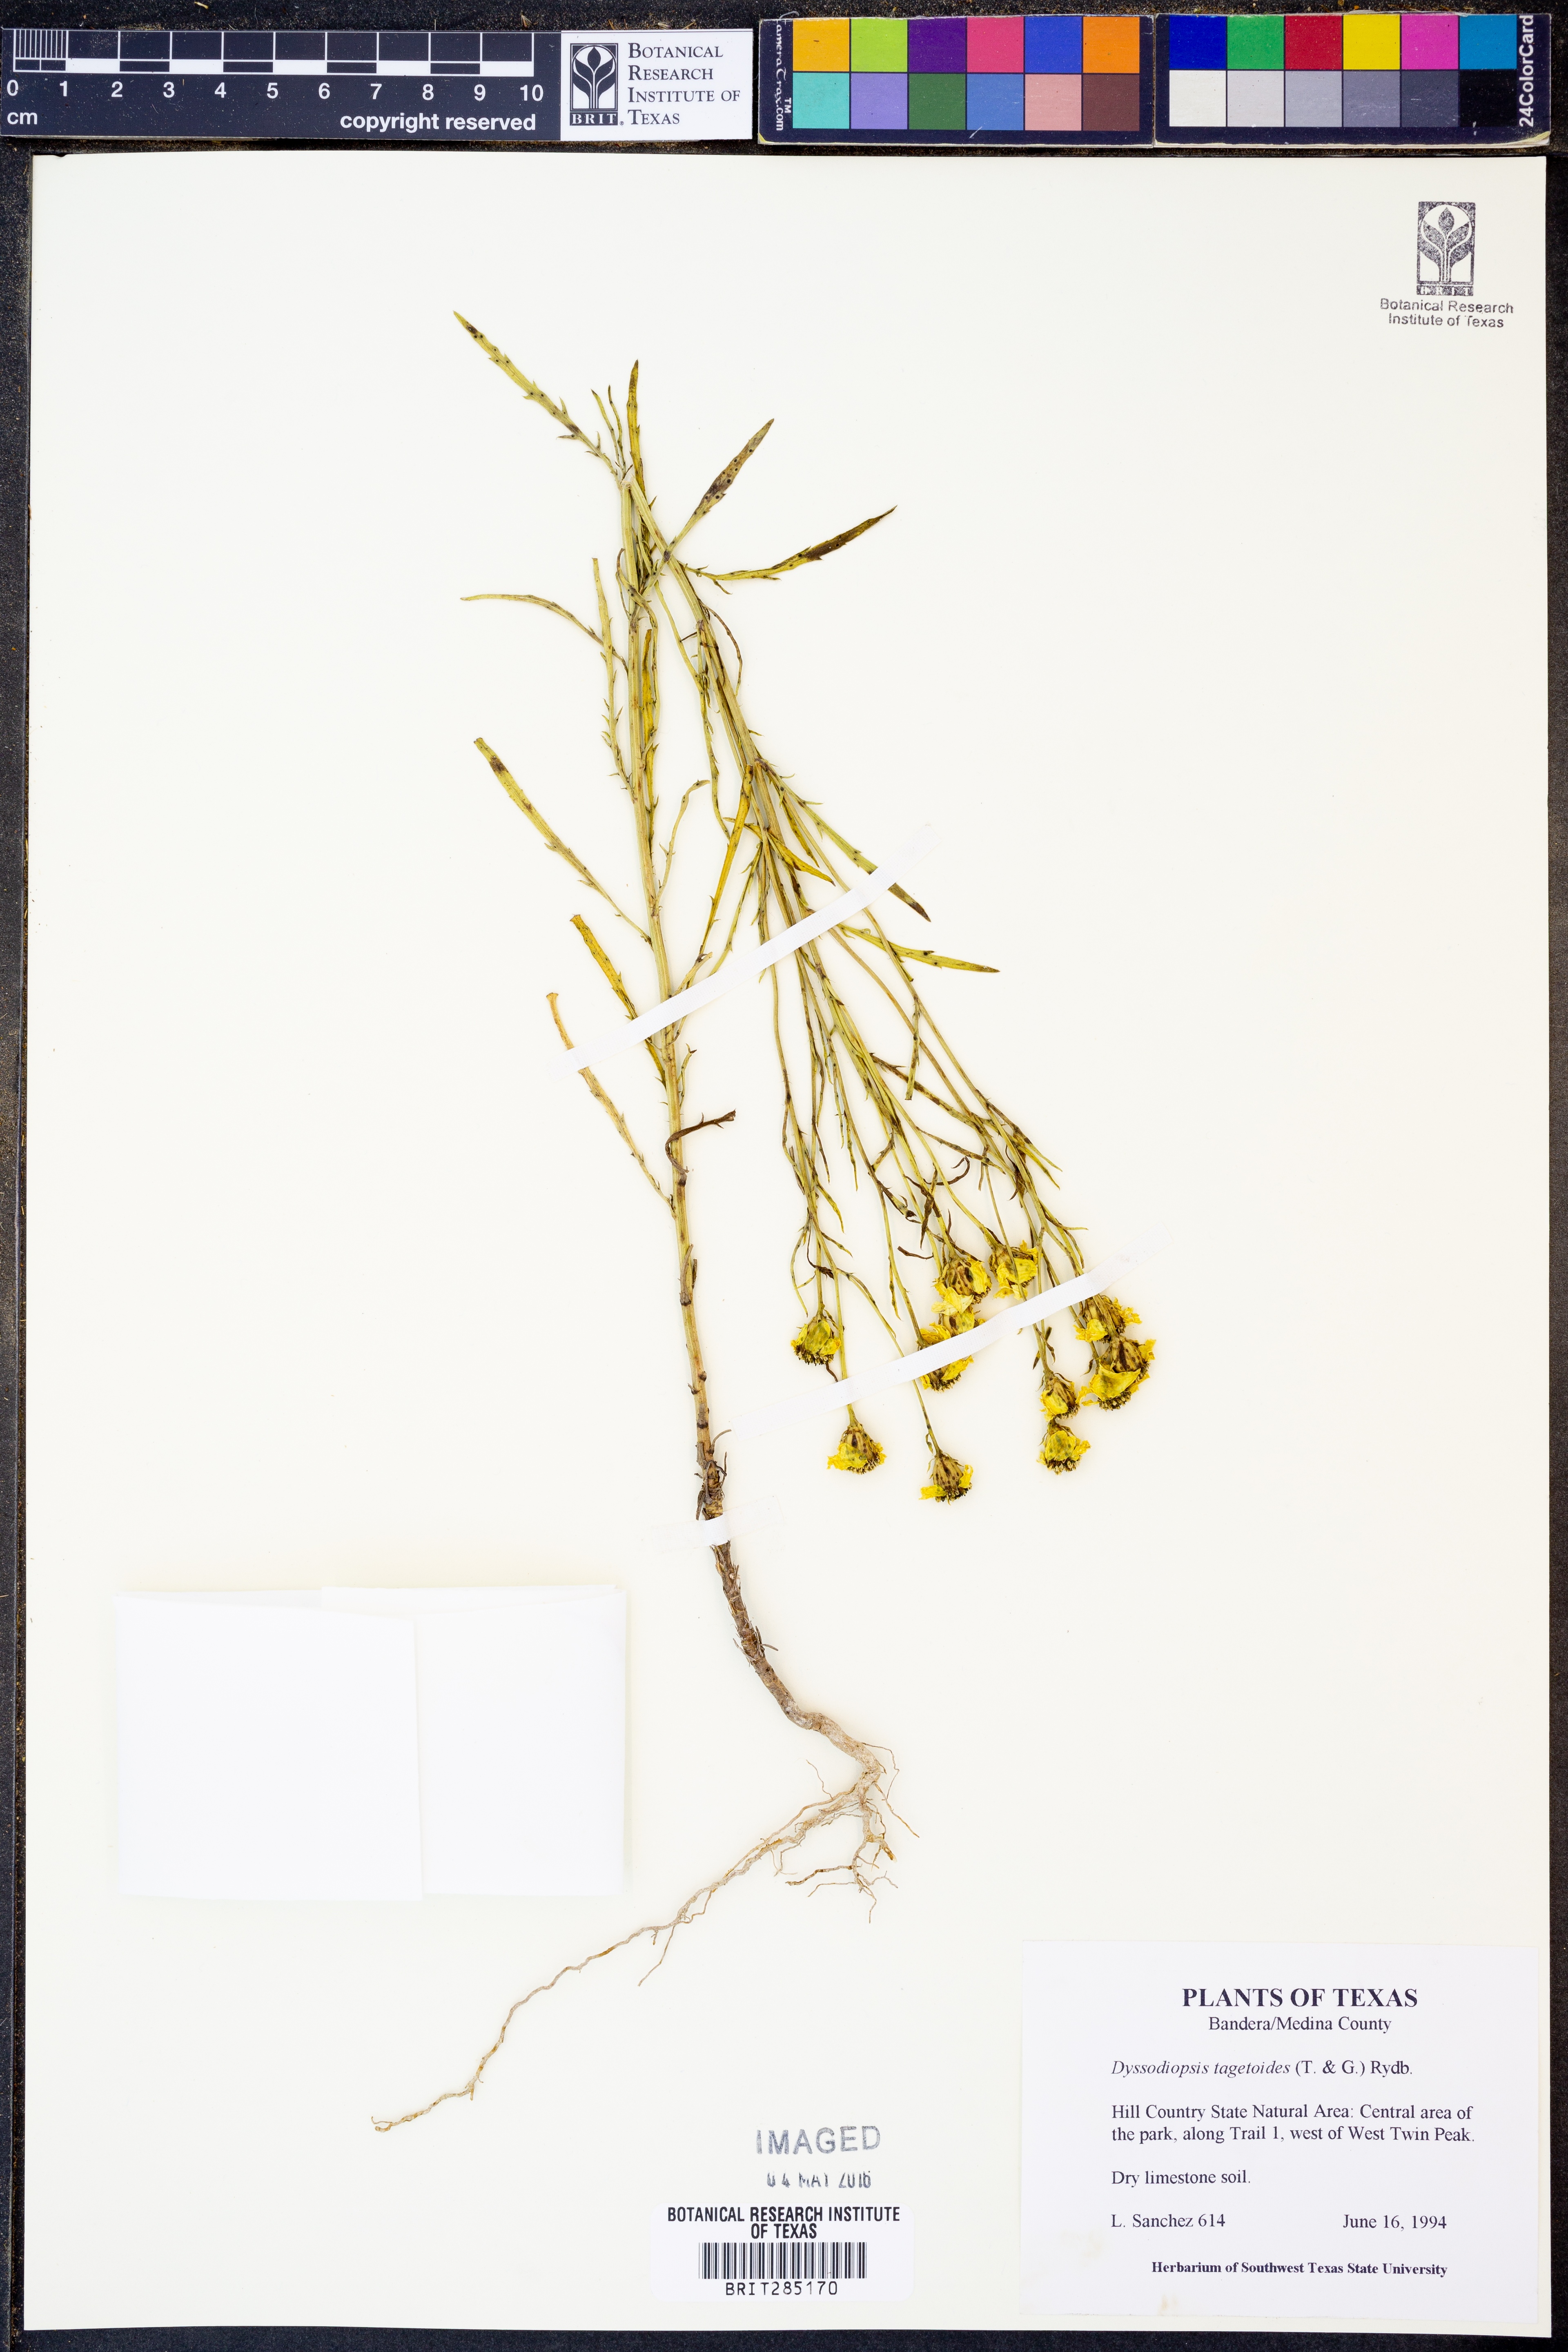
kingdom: Plantae
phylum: Tracheophyta
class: Magnoliopsida
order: Asterales
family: Asteraceae
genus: Dysodiopsis
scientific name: Dysodiopsis tagetoides
